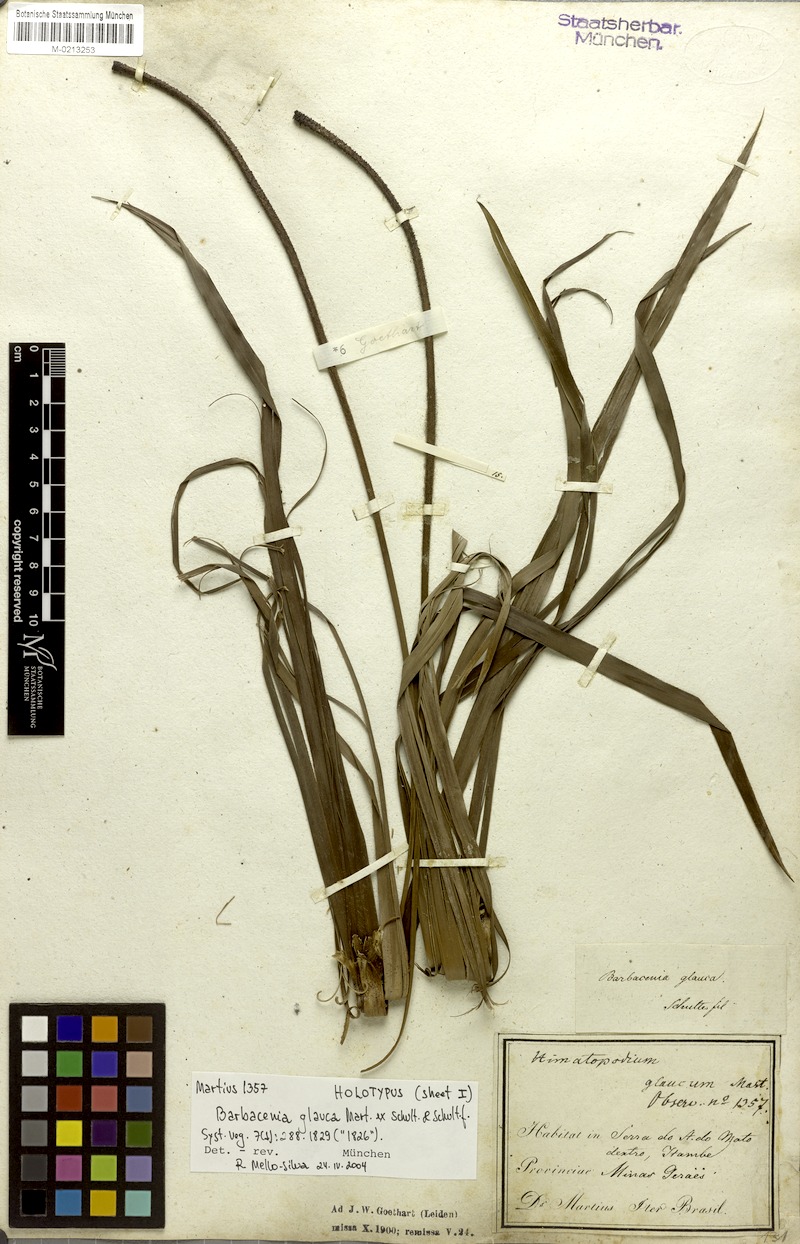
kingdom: Plantae
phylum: Tracheophyta
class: Liliopsida
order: Pandanales
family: Velloziaceae
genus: Barbacenia
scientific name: Barbacenia glauca
